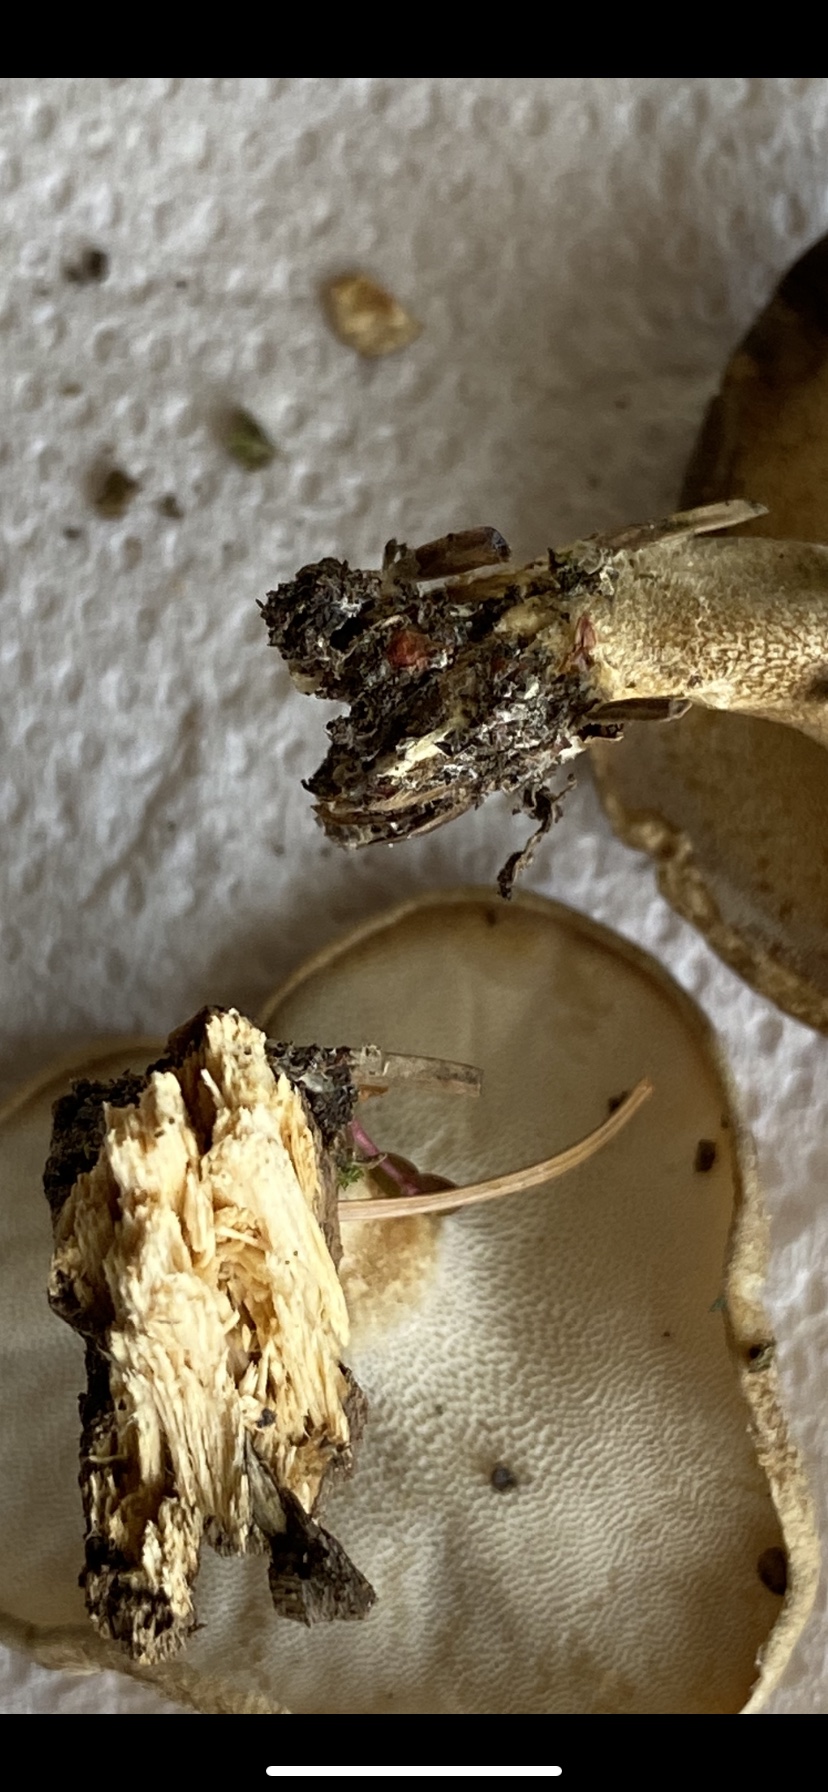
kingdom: Fungi
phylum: Basidiomycota
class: Agaricomycetes
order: Polyporales
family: Polyporaceae
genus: Lentinus
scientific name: Lentinus substrictus
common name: forårs-stilkporesvamp
